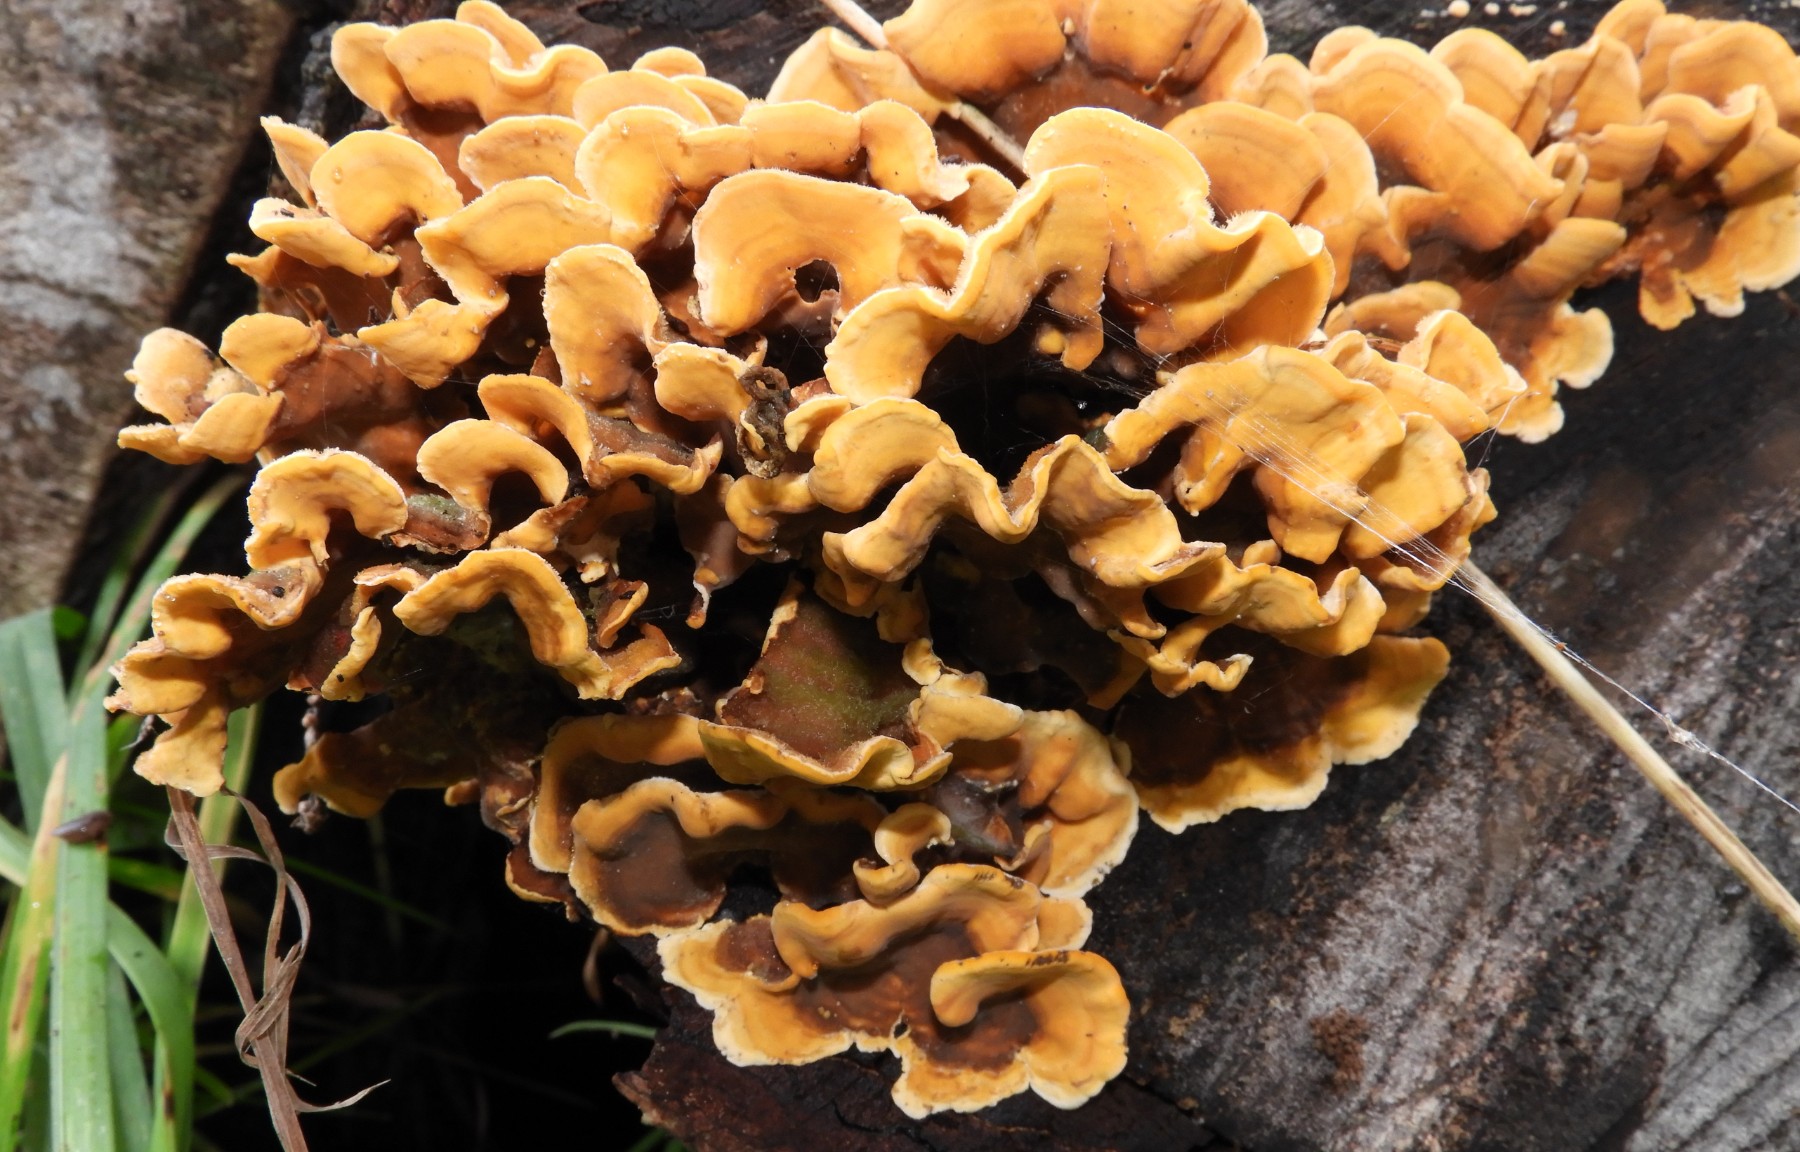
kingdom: Fungi
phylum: Basidiomycota
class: Agaricomycetes
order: Russulales
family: Stereaceae
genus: Stereum
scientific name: Stereum subtomentosum
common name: smuk lædersvamp
